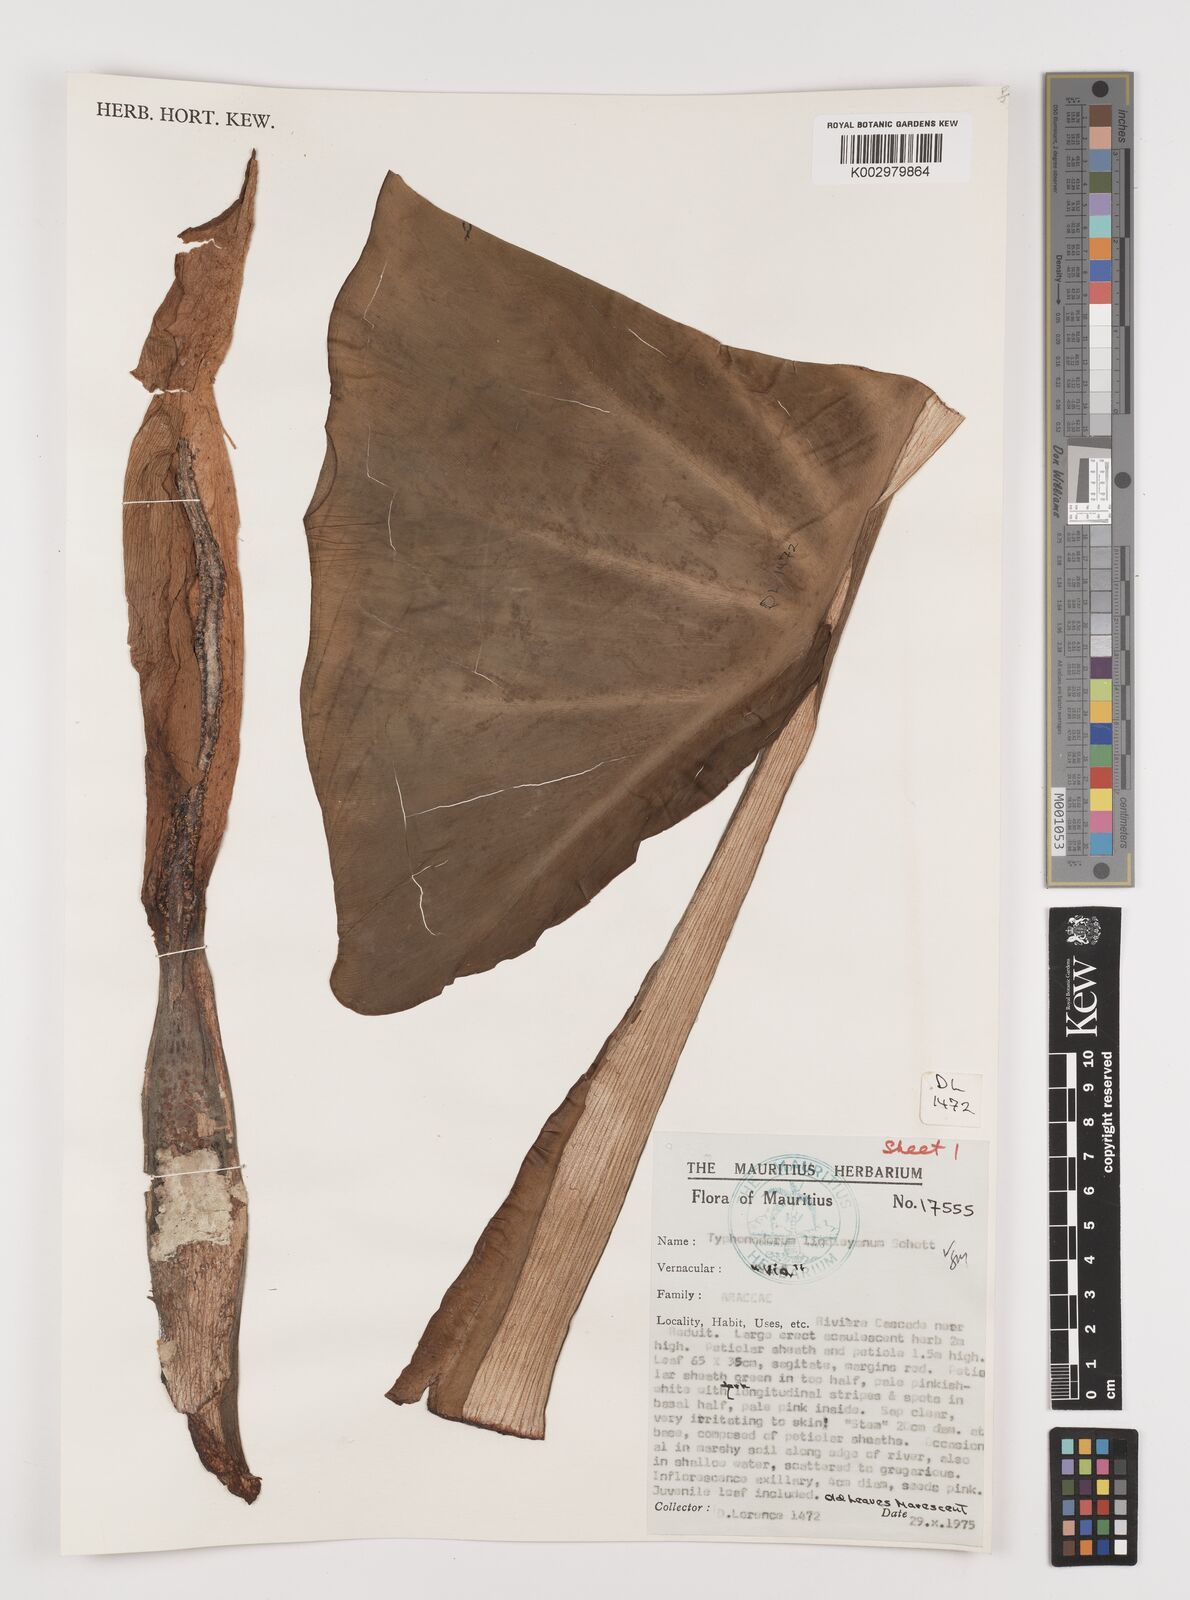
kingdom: Plantae
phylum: Tracheophyta
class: Liliopsida
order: Alismatales
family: Araceae
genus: Typhonodorum
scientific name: Typhonodorum lindleyanum
